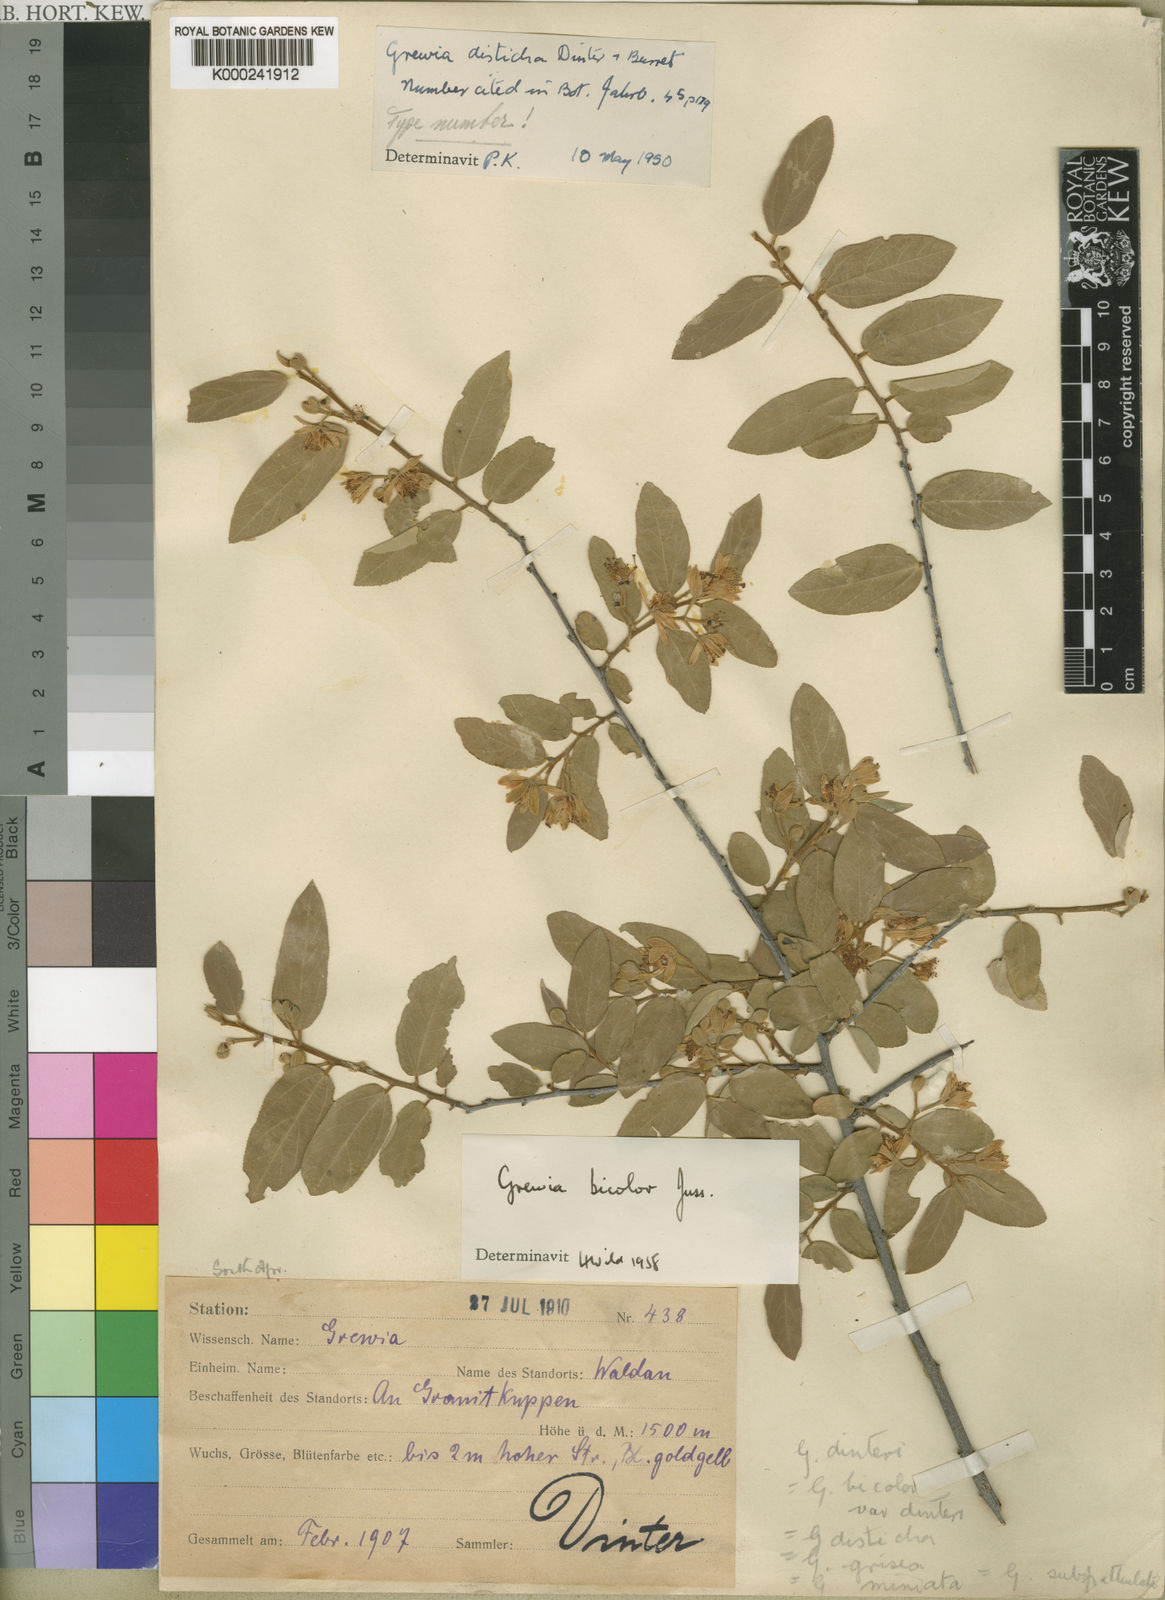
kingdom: Plantae
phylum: Tracheophyta
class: Magnoliopsida
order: Malvales
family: Malvaceae
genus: Grewia
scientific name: Grewia bicolor
